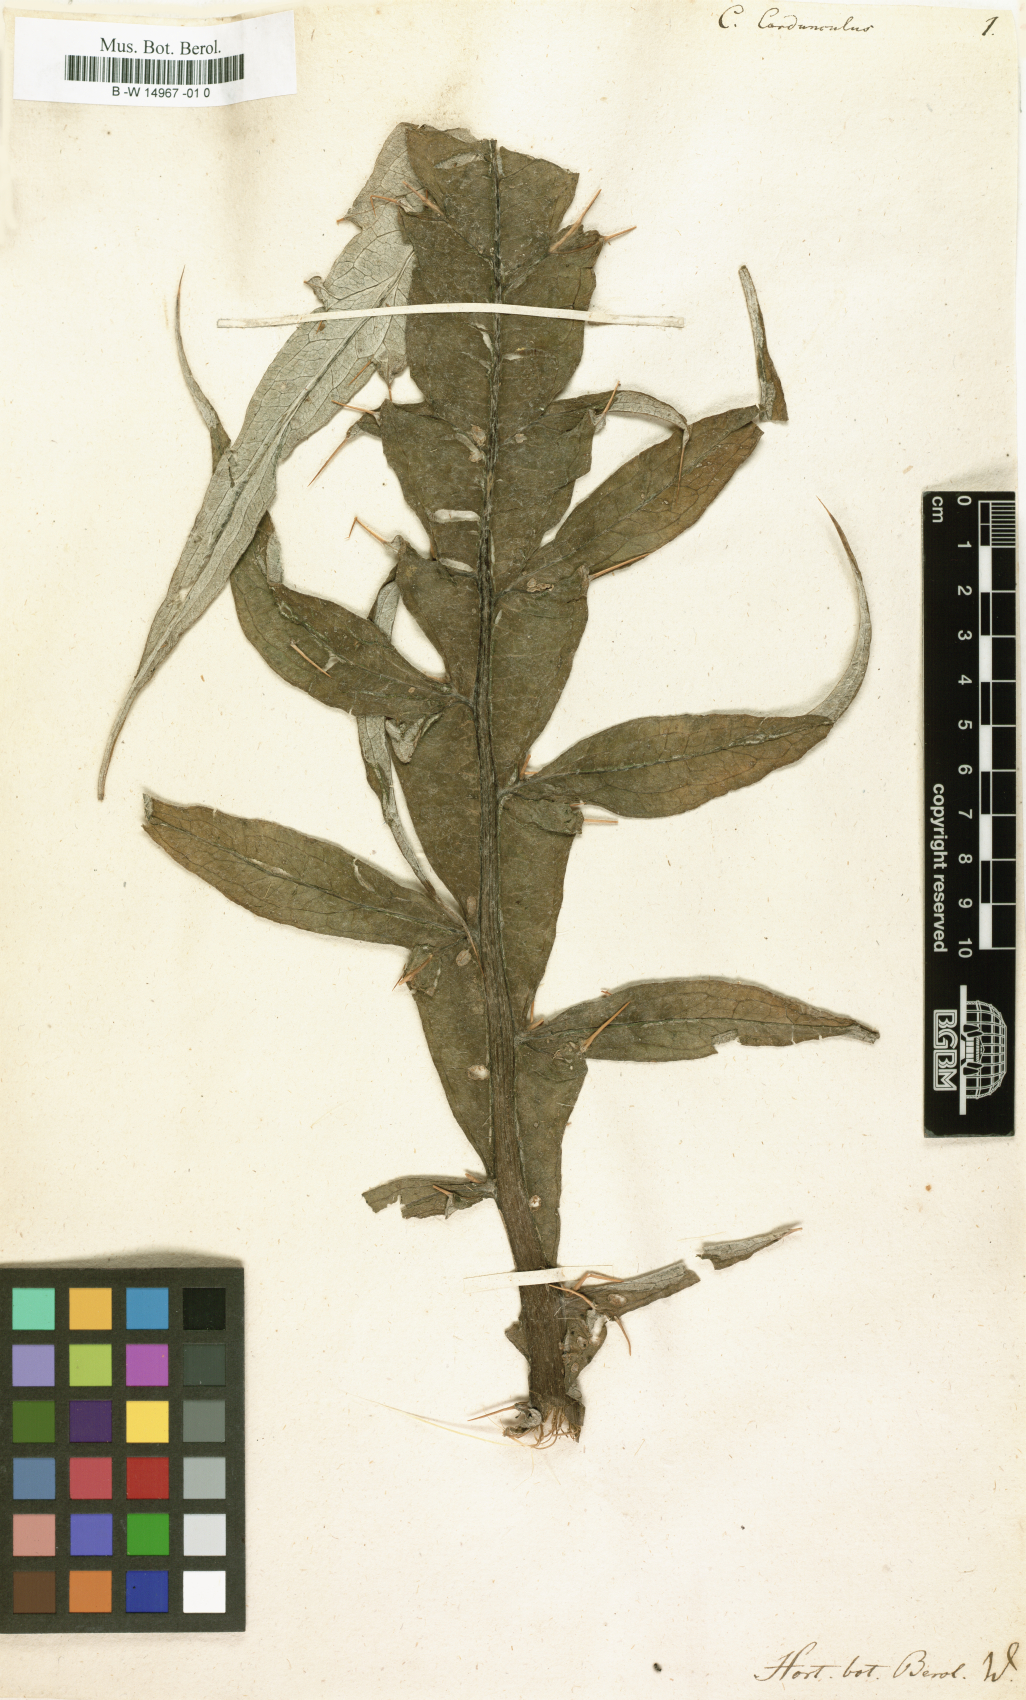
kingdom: Plantae
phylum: Tracheophyta
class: Magnoliopsida
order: Asterales
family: Asteraceae
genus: Cynara
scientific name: Cynara cardunculus
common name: Globe artichoke
